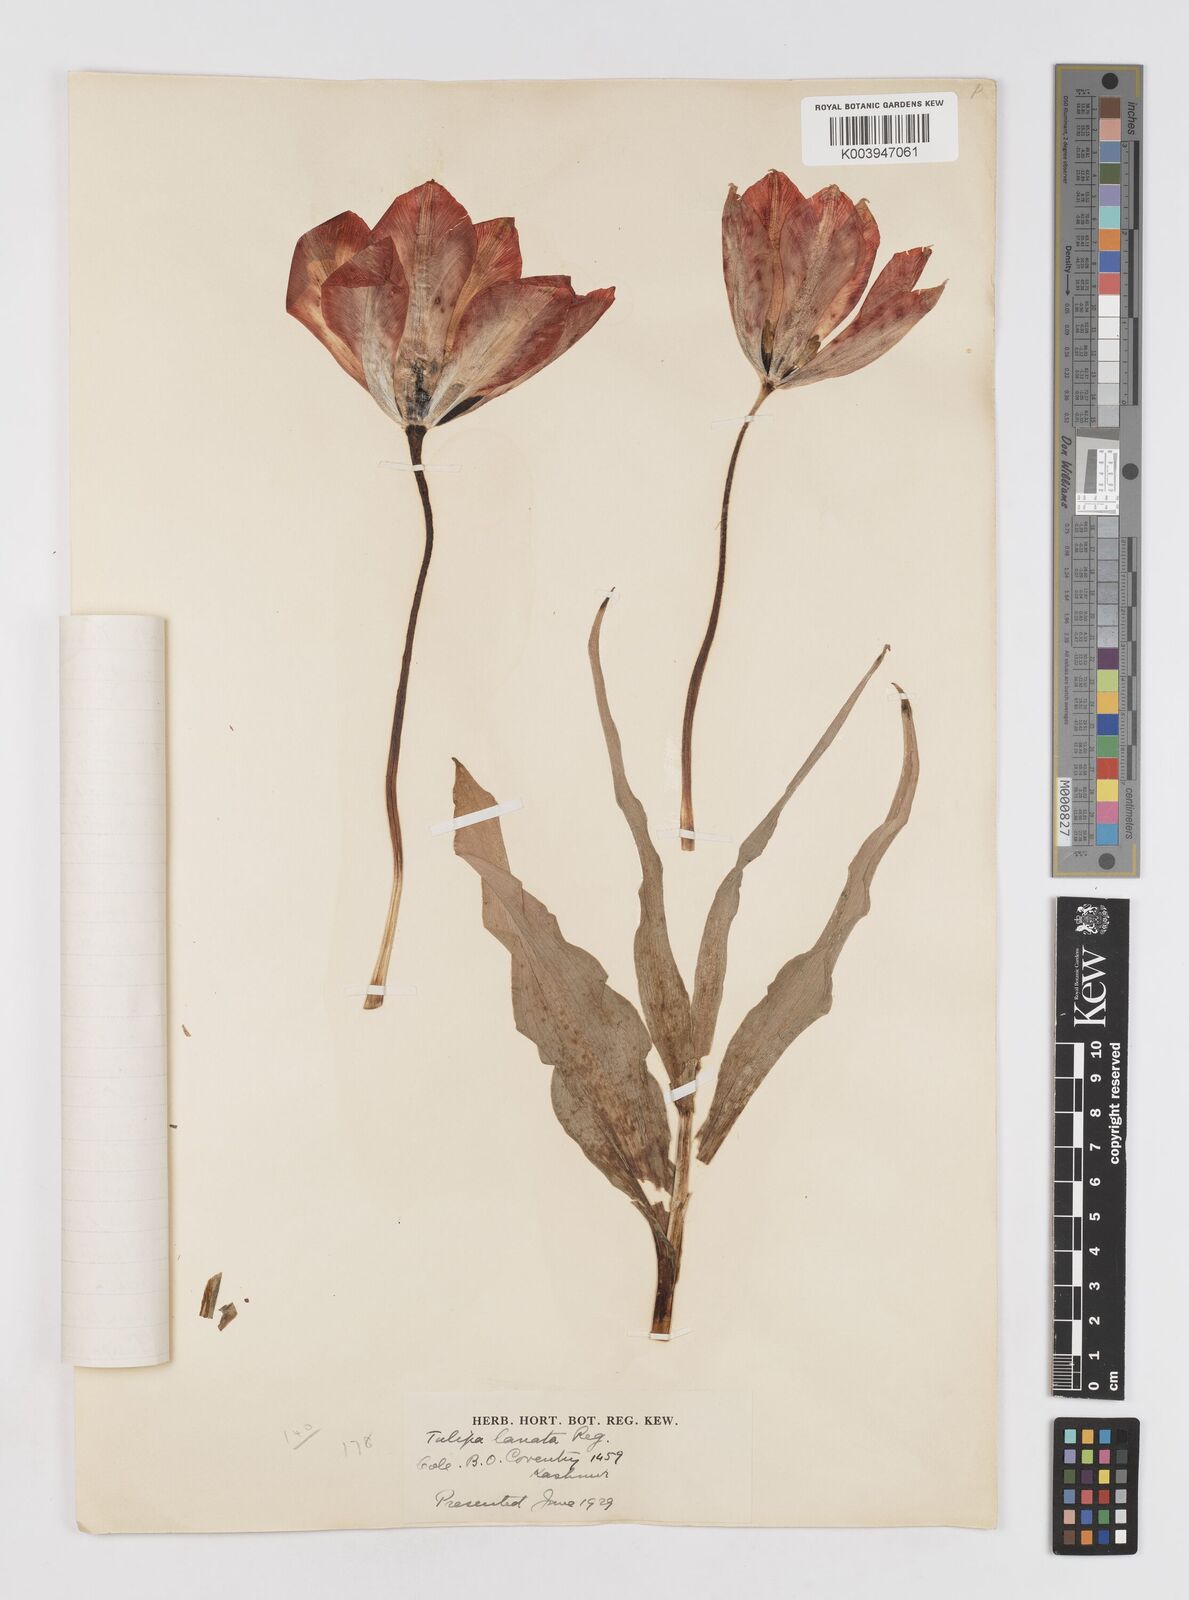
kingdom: Plantae
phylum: Tracheophyta
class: Liliopsida
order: Liliales
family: Liliaceae
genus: Tulipa
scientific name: Tulipa lanata
